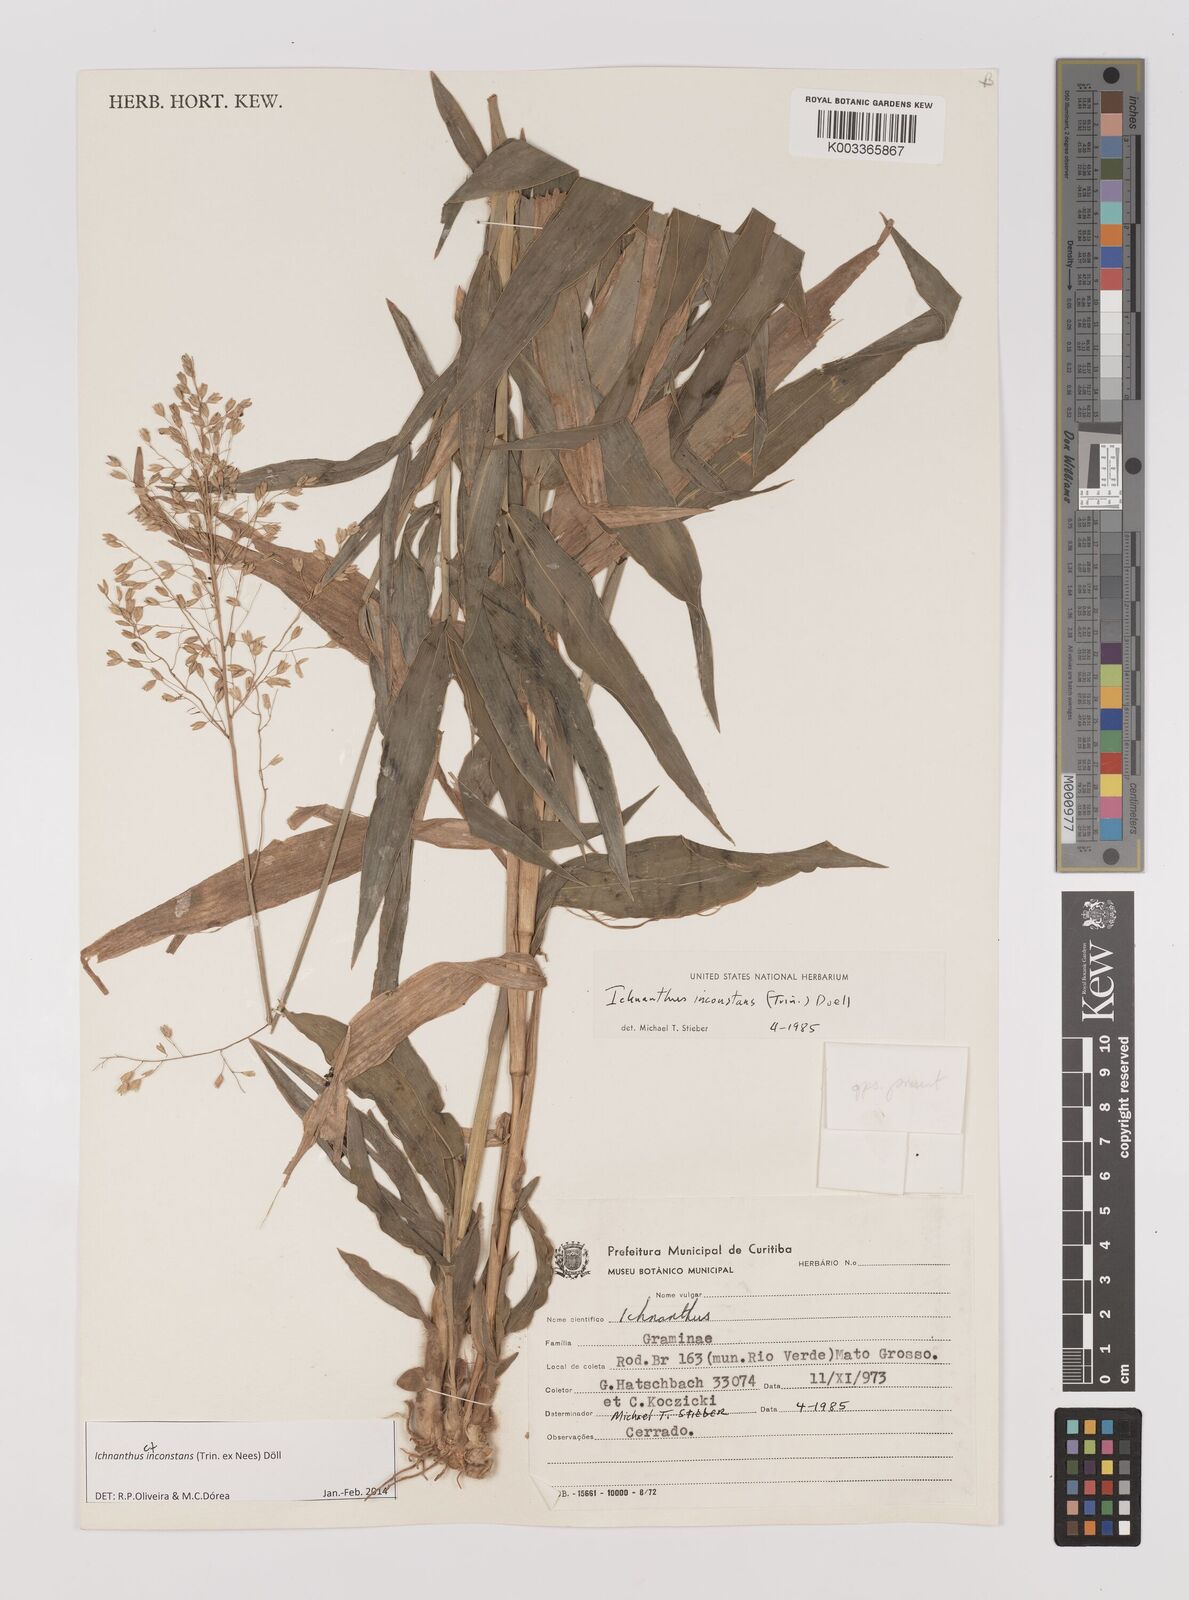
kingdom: Plantae
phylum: Tracheophyta
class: Liliopsida
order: Poales
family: Poaceae
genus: Ichnanthus
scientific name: Ichnanthus inconstans
